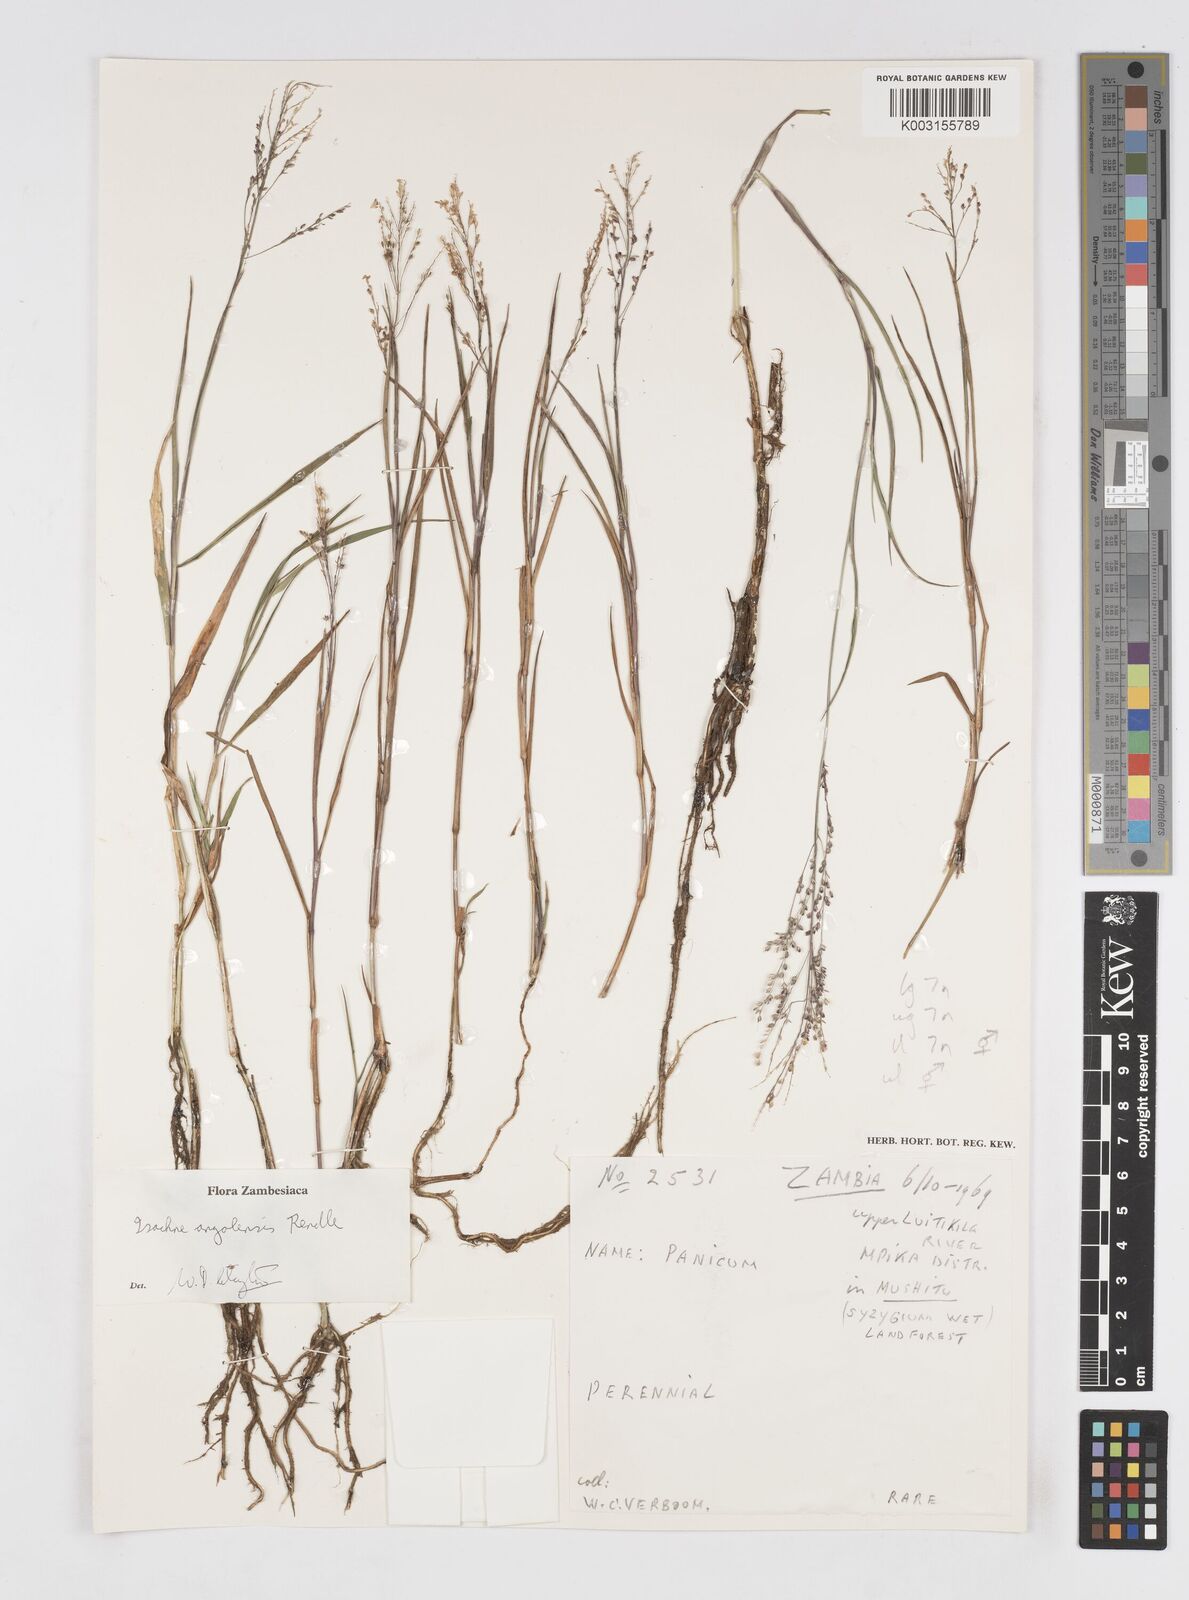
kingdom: Plantae
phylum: Tracheophyta
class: Liliopsida
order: Poales
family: Poaceae
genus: Isachne
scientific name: Isachne angolensis
